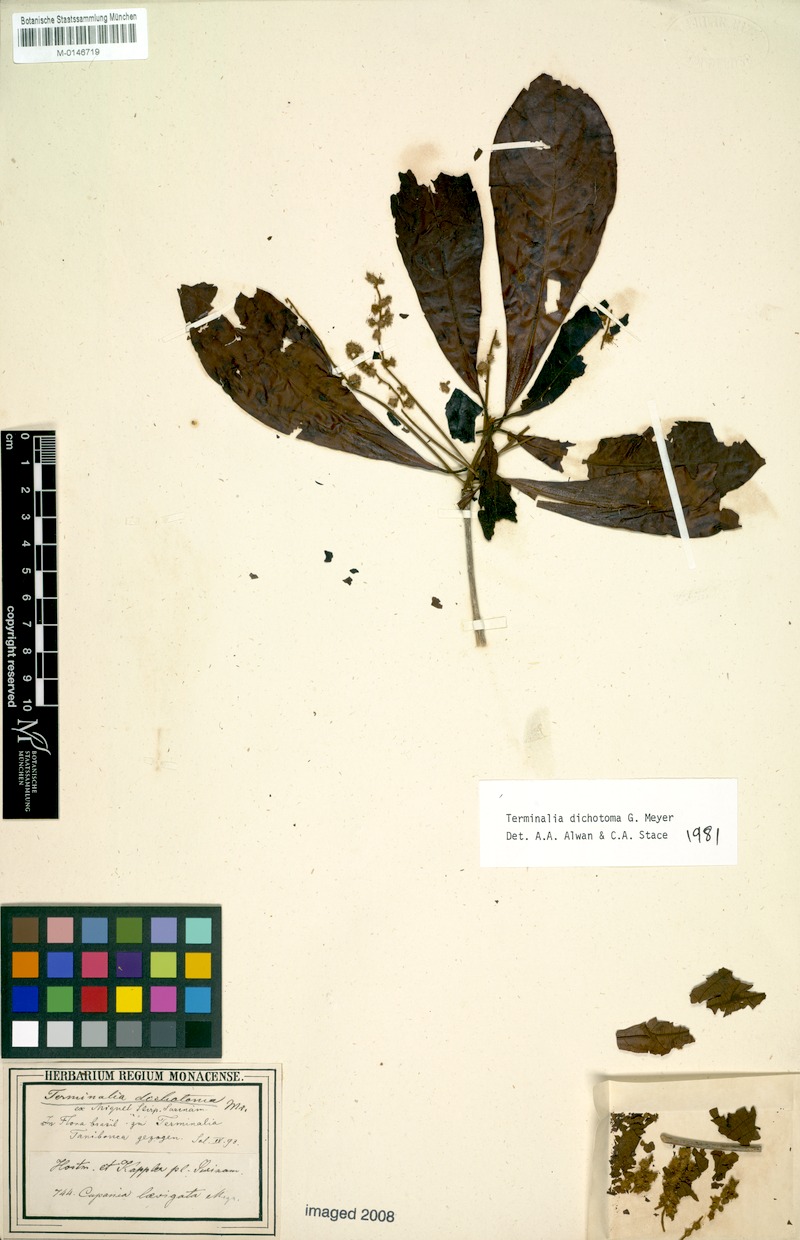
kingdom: Plantae
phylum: Tracheophyta
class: Magnoliopsida
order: Myrtales
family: Combretaceae
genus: Terminalia
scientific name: Terminalia dichotoma
